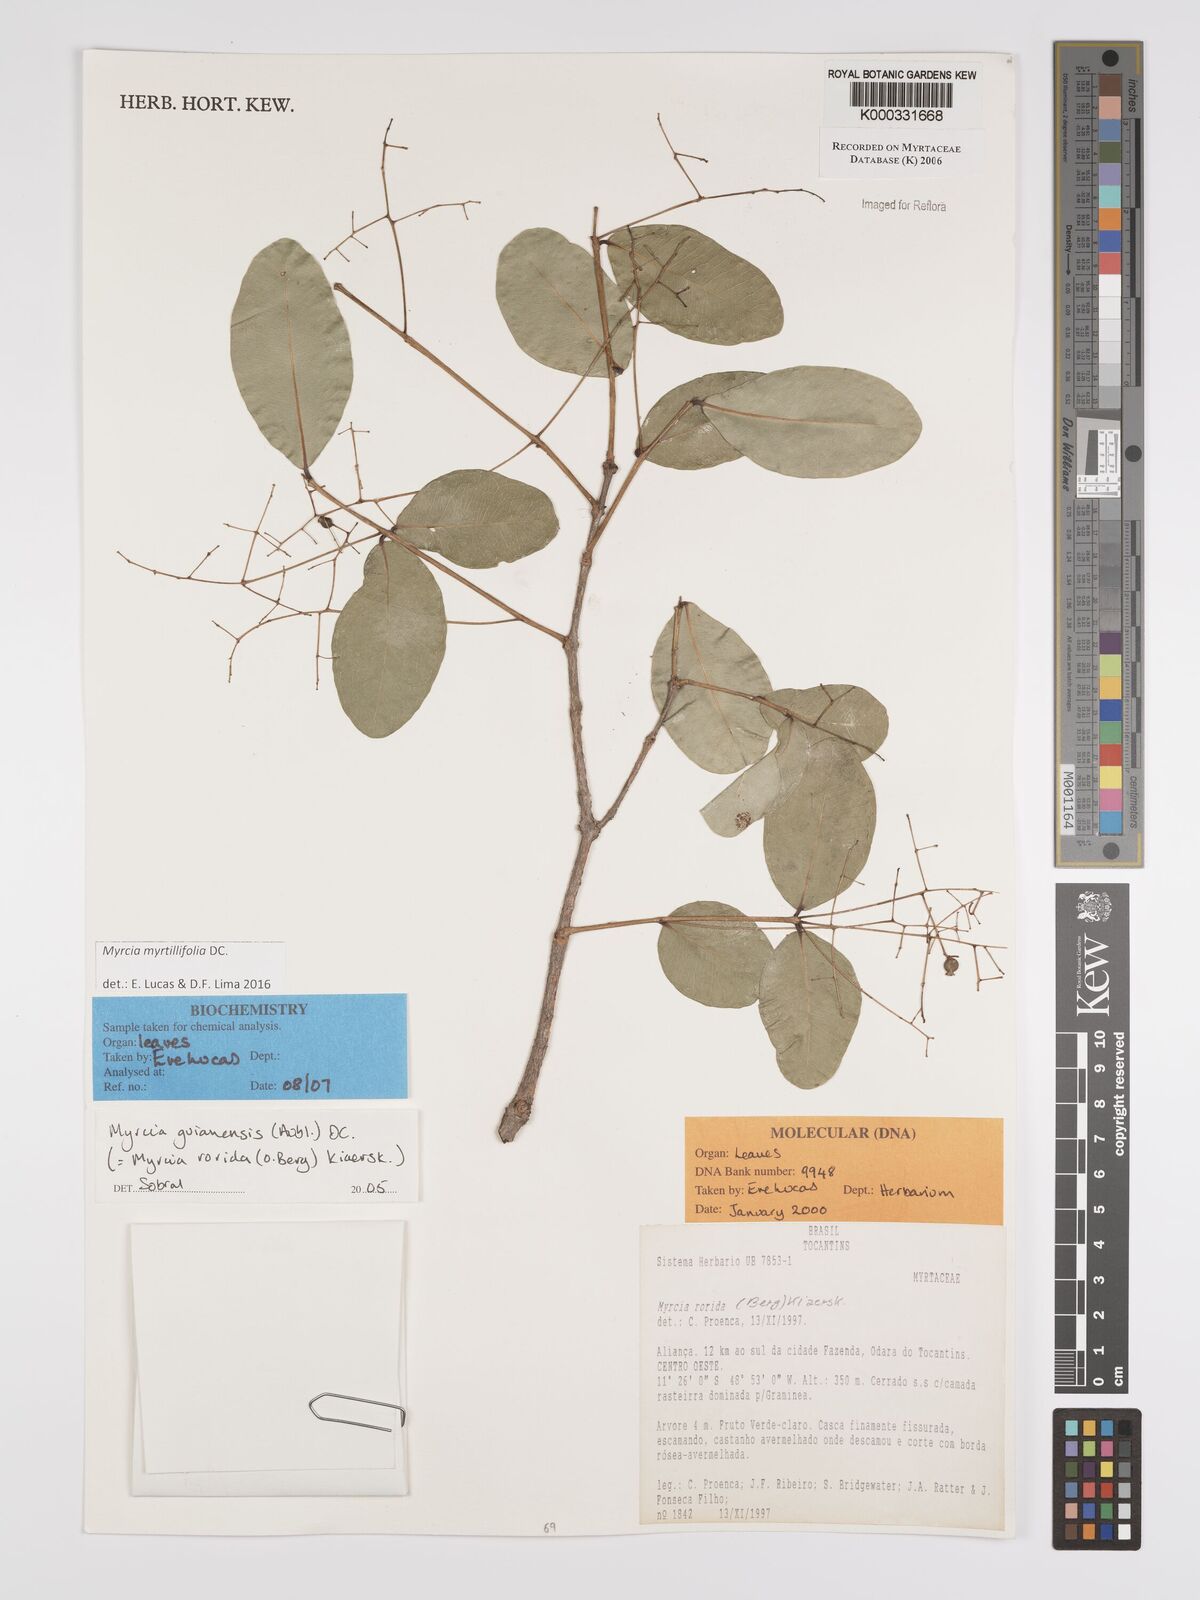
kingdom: Plantae
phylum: Tracheophyta
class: Magnoliopsida
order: Myrtales
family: Myrtaceae
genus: Myrcia
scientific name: Myrcia guianensis
